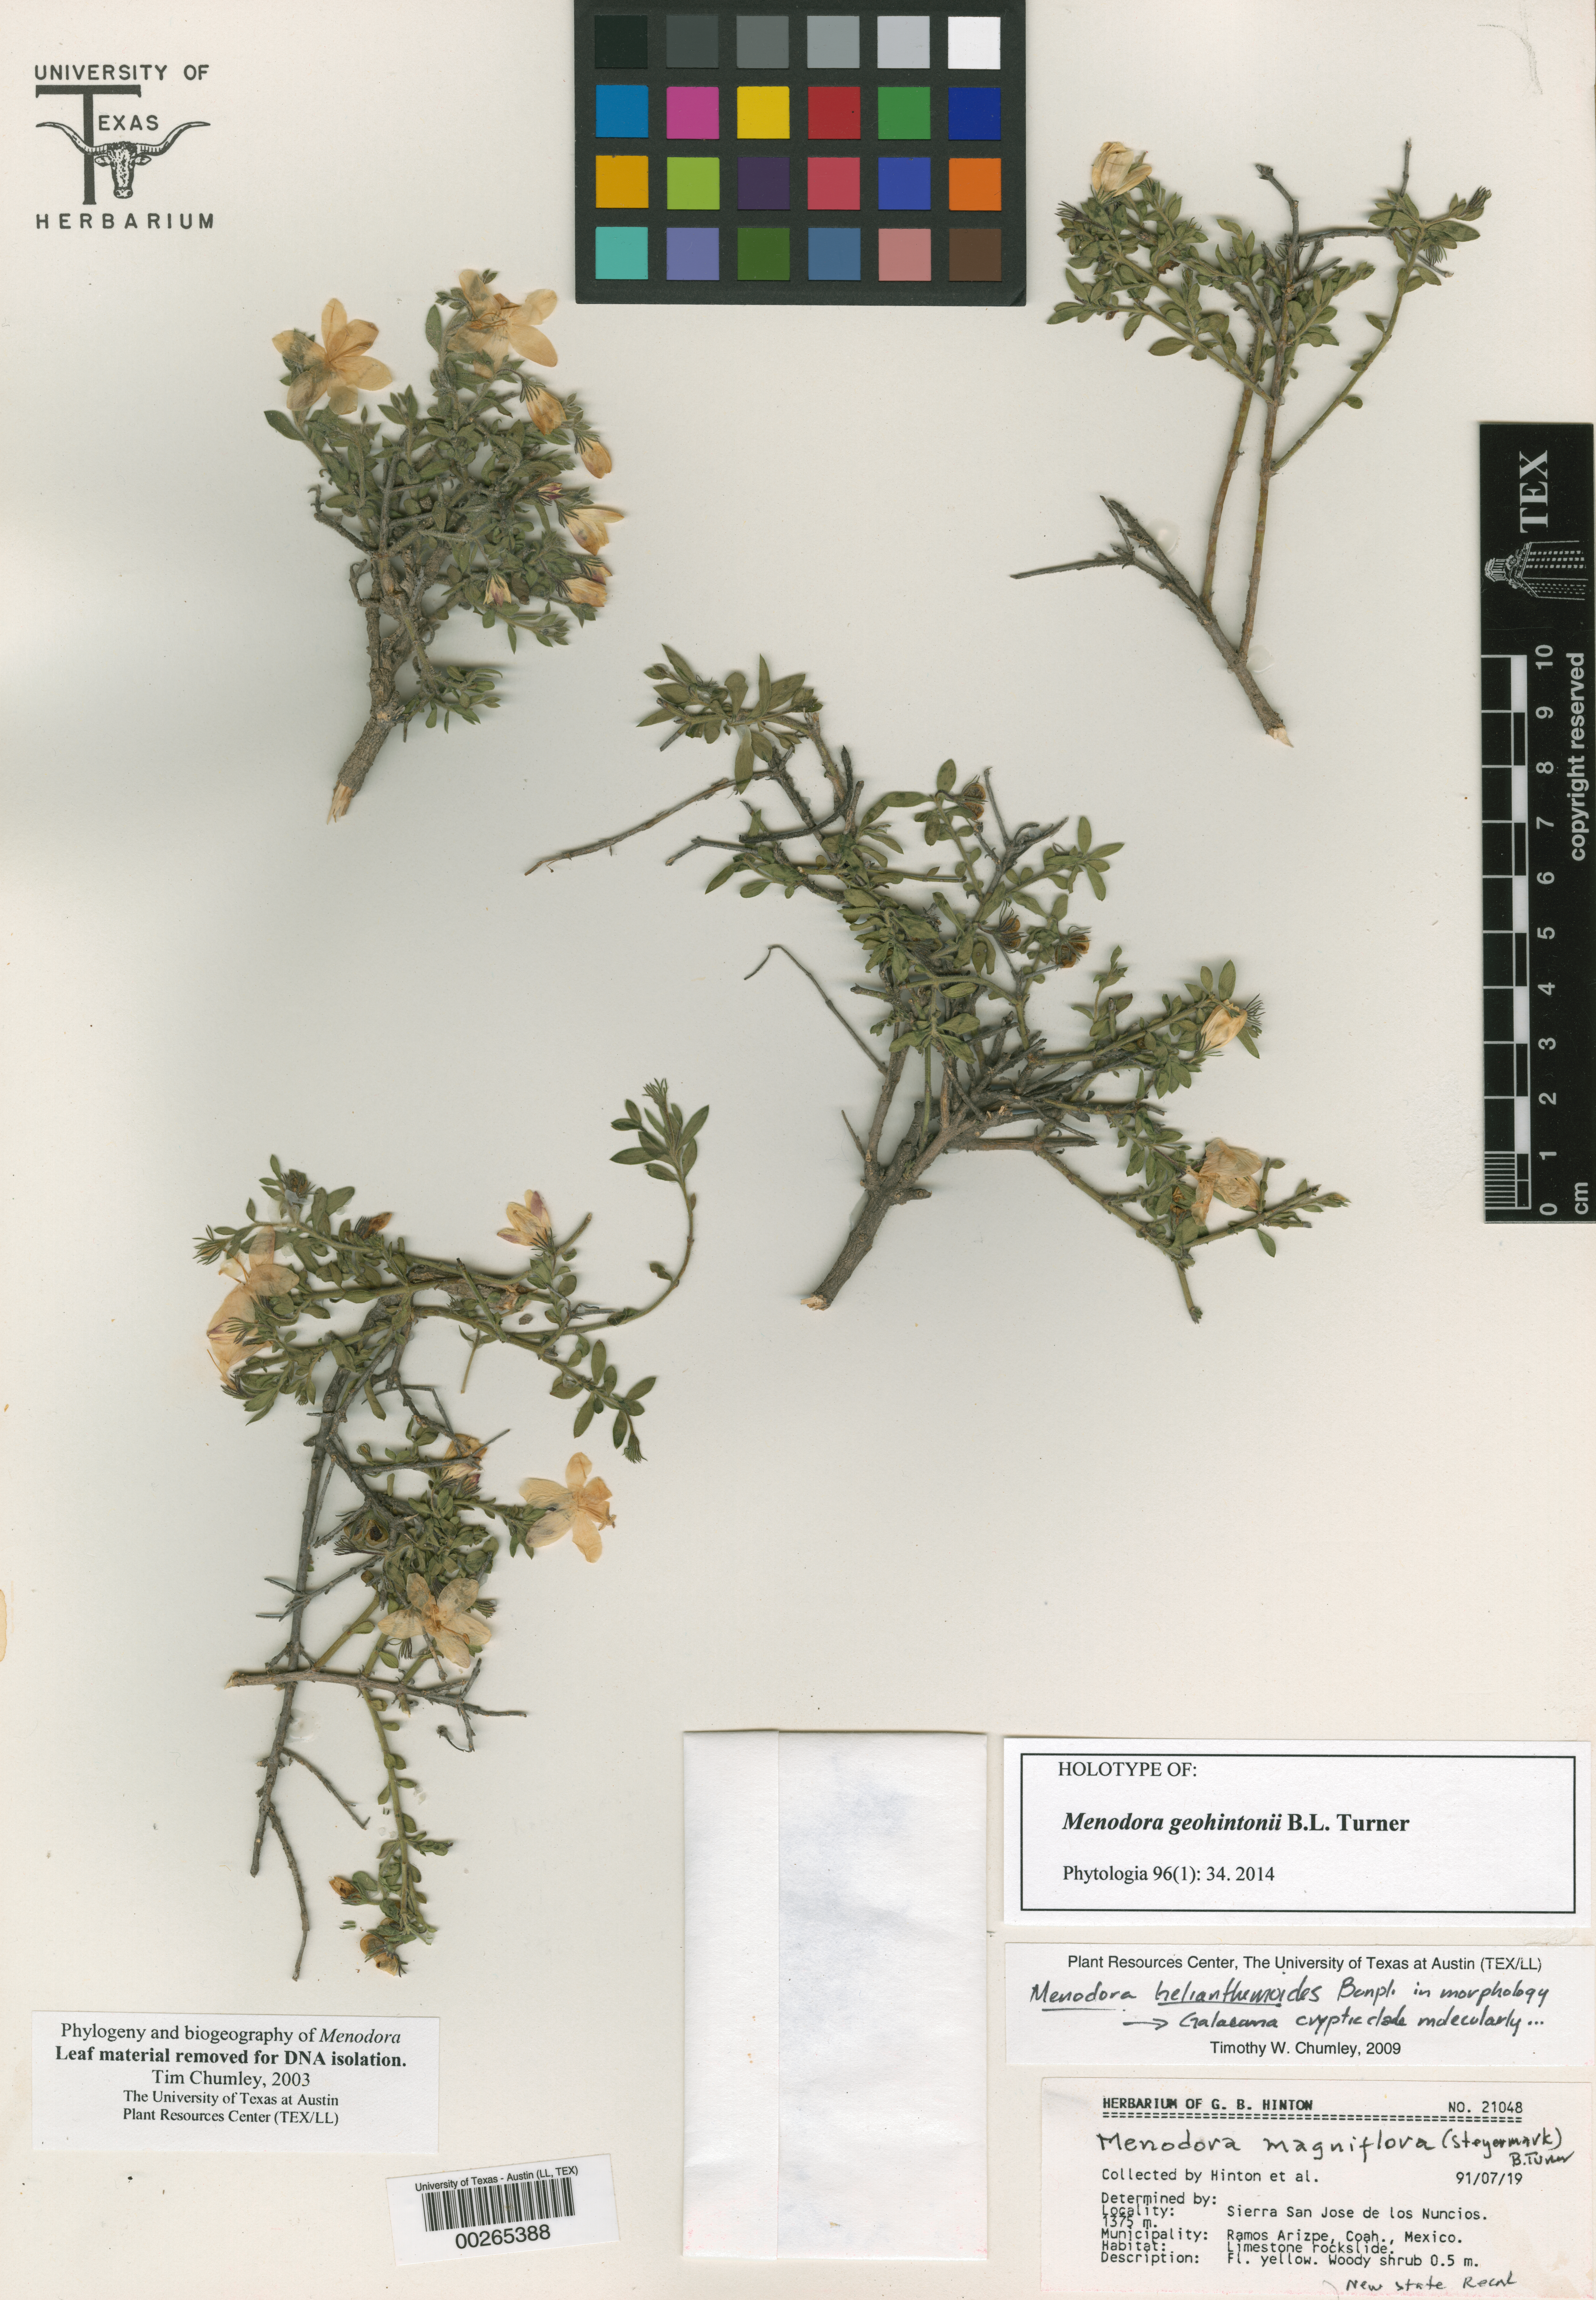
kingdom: Plantae
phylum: Tracheophyta
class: Magnoliopsida
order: Malpighiales
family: Hypericaceae
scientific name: Hypericaceae
